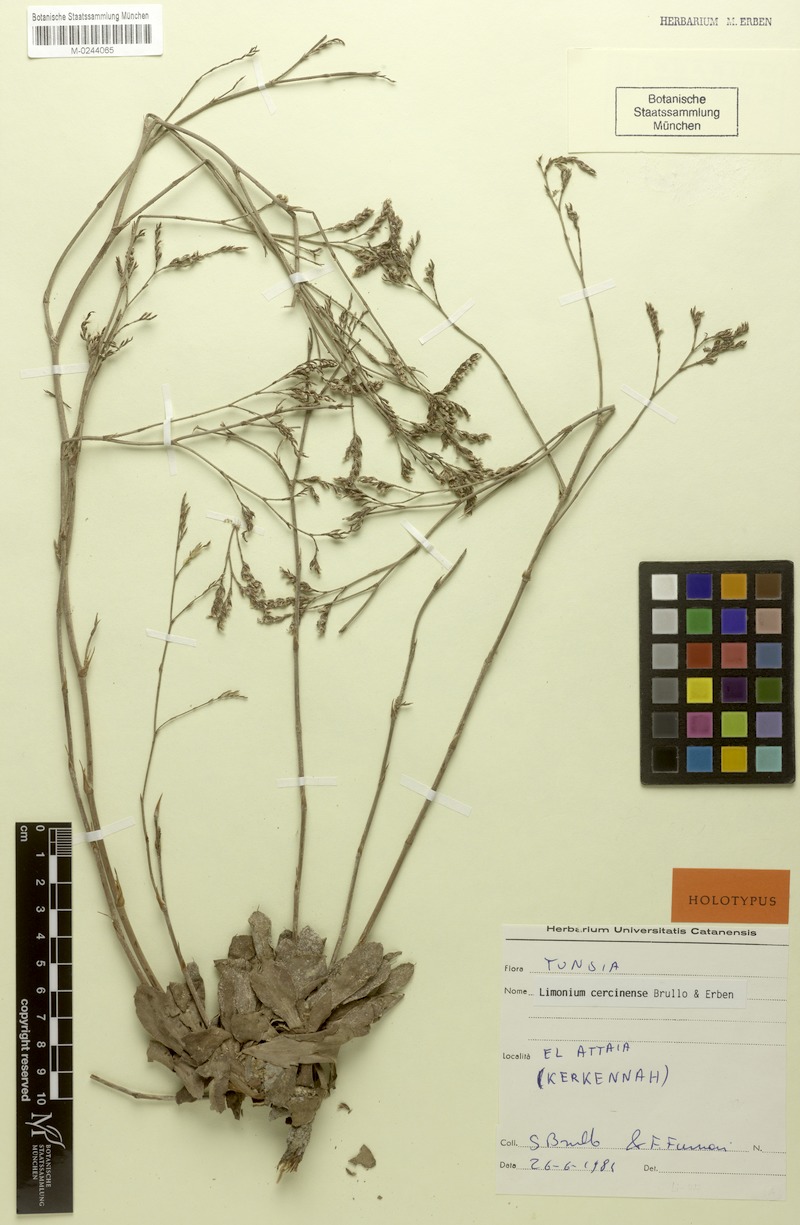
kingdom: Plantae
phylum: Tracheophyta
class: Magnoliopsida
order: Caryophyllales
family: Plumbaginaceae
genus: Limonium
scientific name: Limonium cercinense
